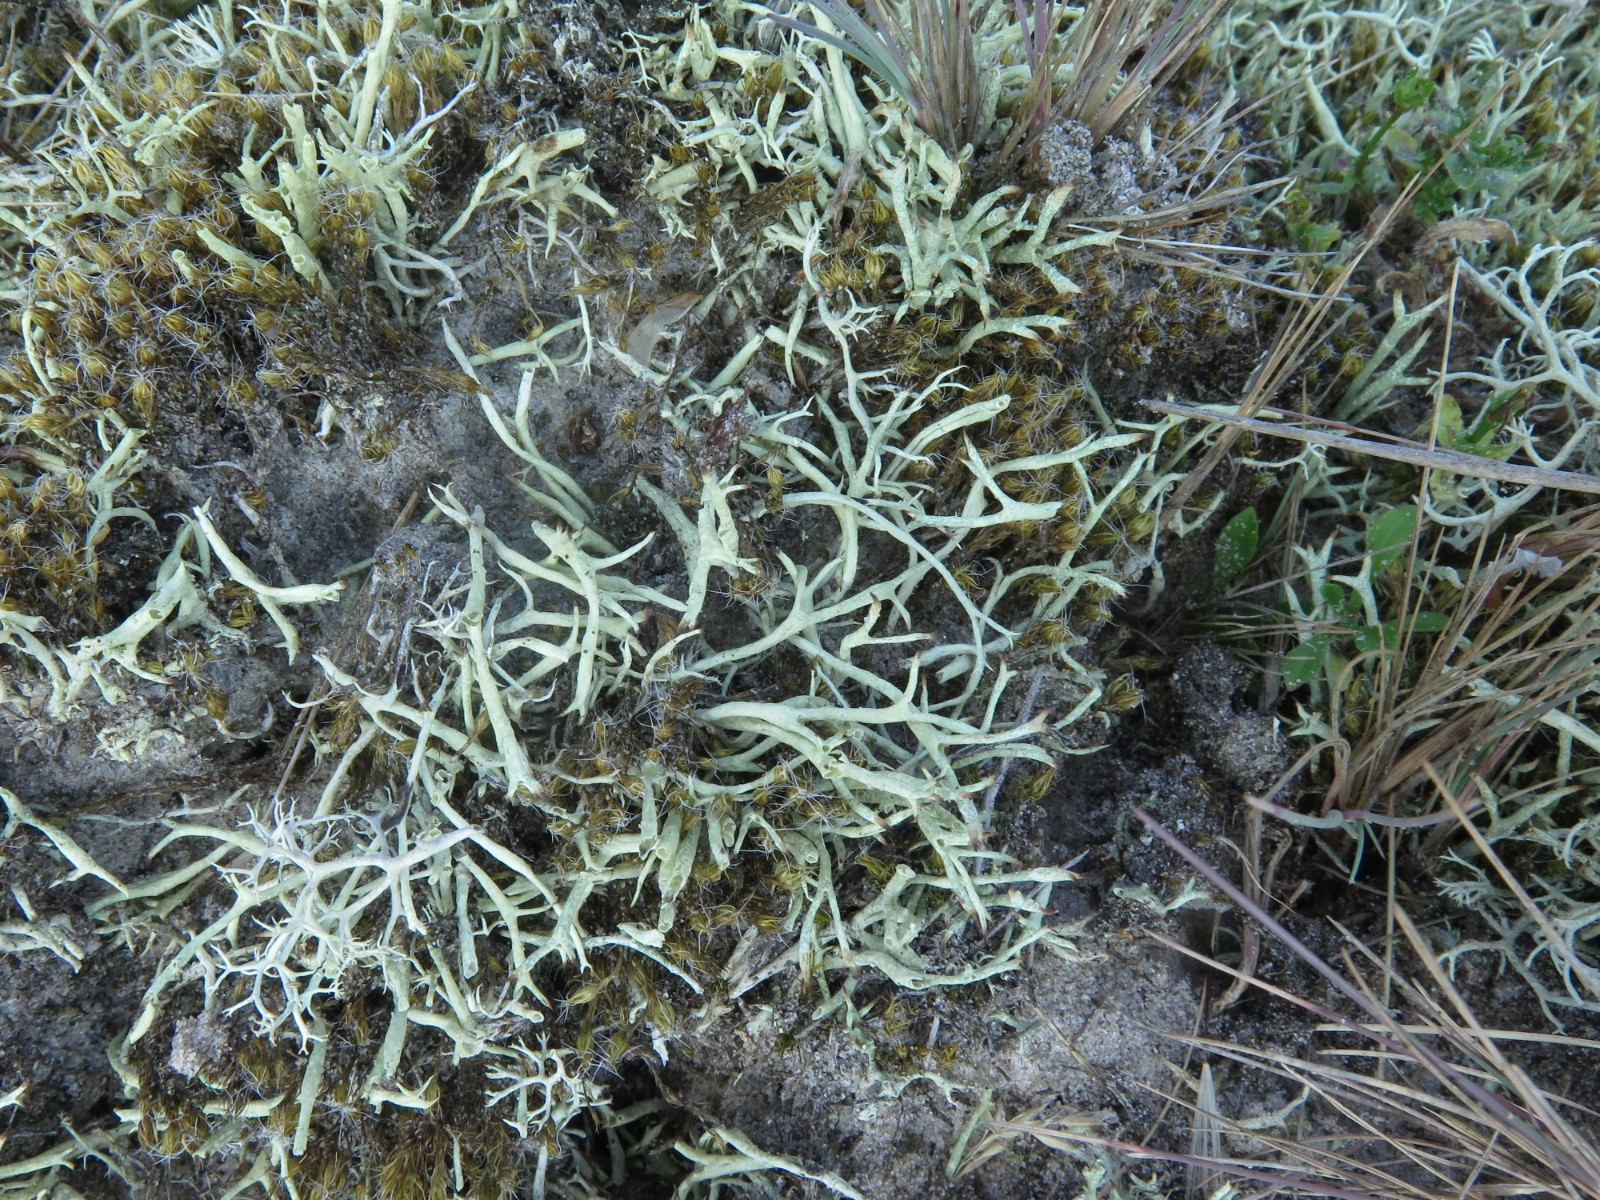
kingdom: Fungi
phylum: Ascomycota
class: Lecanoromycetes
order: Lecanorales
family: Cladoniaceae
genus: Cladonia
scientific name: Cladonia uncialis
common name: pigget bægerlav
